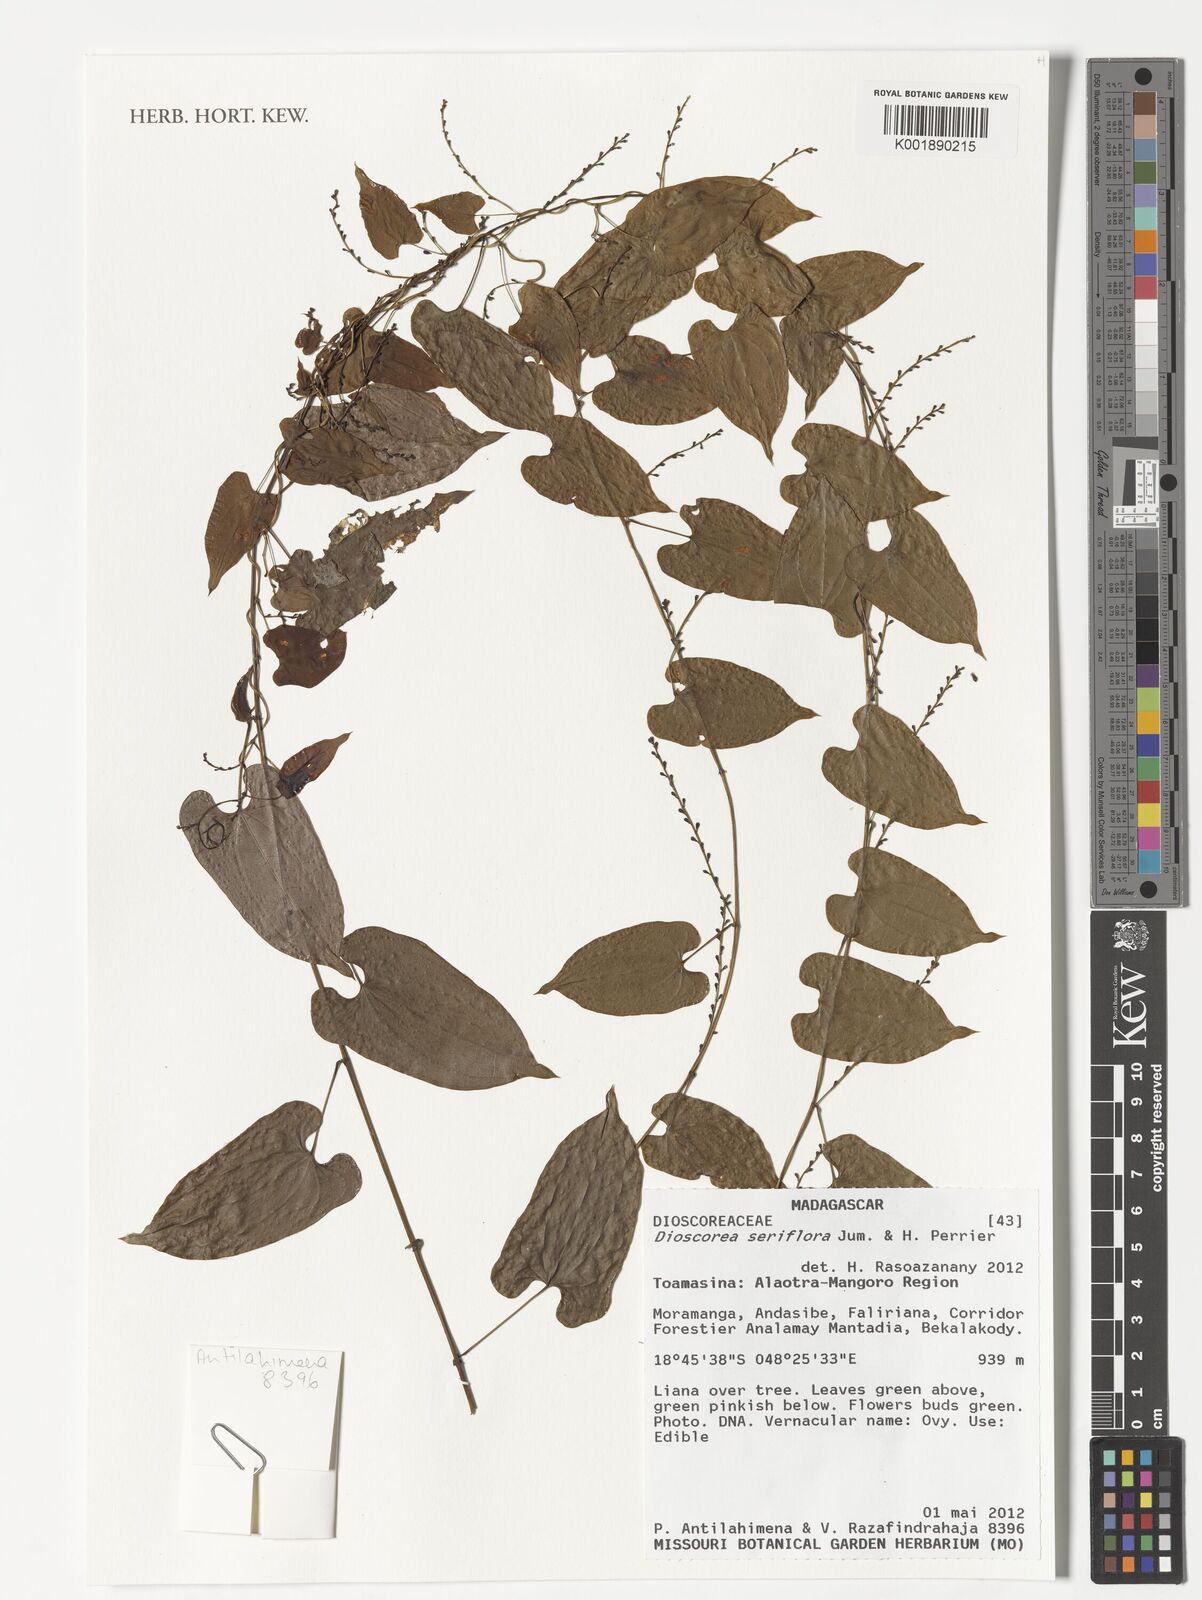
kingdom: Plantae
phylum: Tracheophyta
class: Liliopsida
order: Dioscoreales
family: Dioscoreaceae
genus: Dioscorea
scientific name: Dioscorea seriflora
